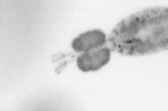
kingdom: Animalia
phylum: Arthropoda
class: Copepoda
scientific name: Copepoda
